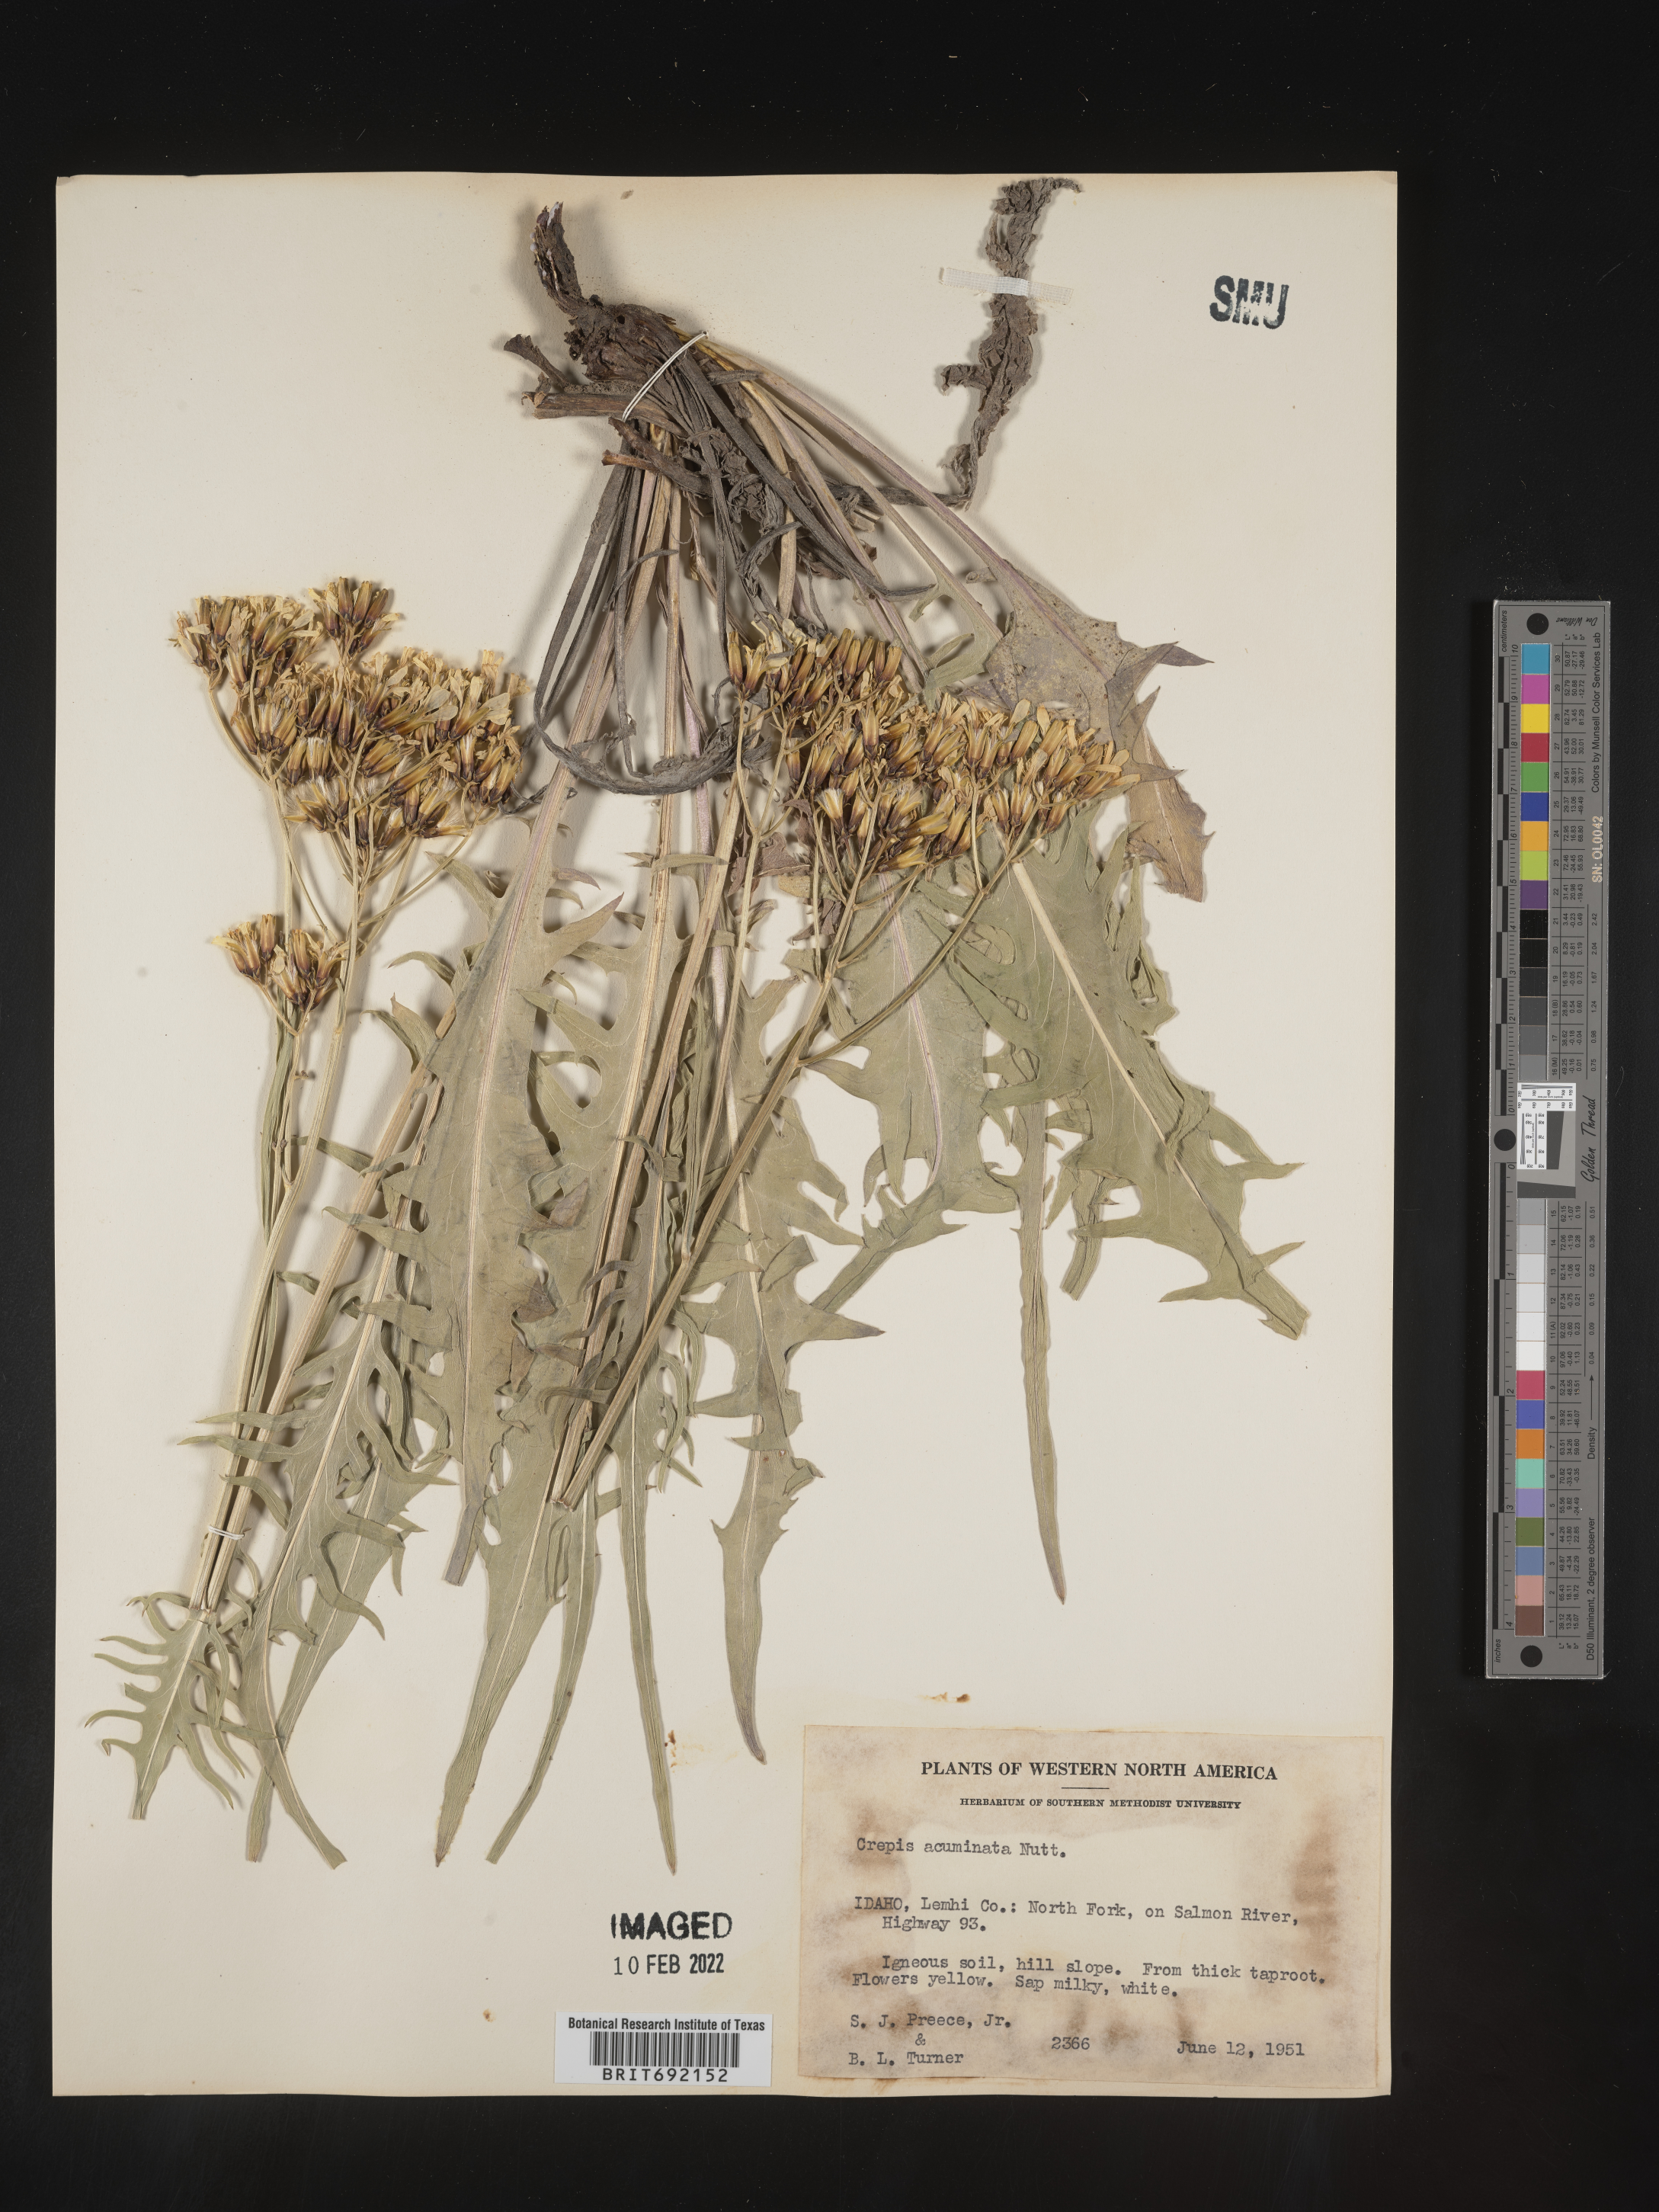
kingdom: Plantae
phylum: Tracheophyta
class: Magnoliopsida
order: Asterales
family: Asteraceae
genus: Crepis
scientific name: Crepis acuminata
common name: Longleaf hawk's-beard
